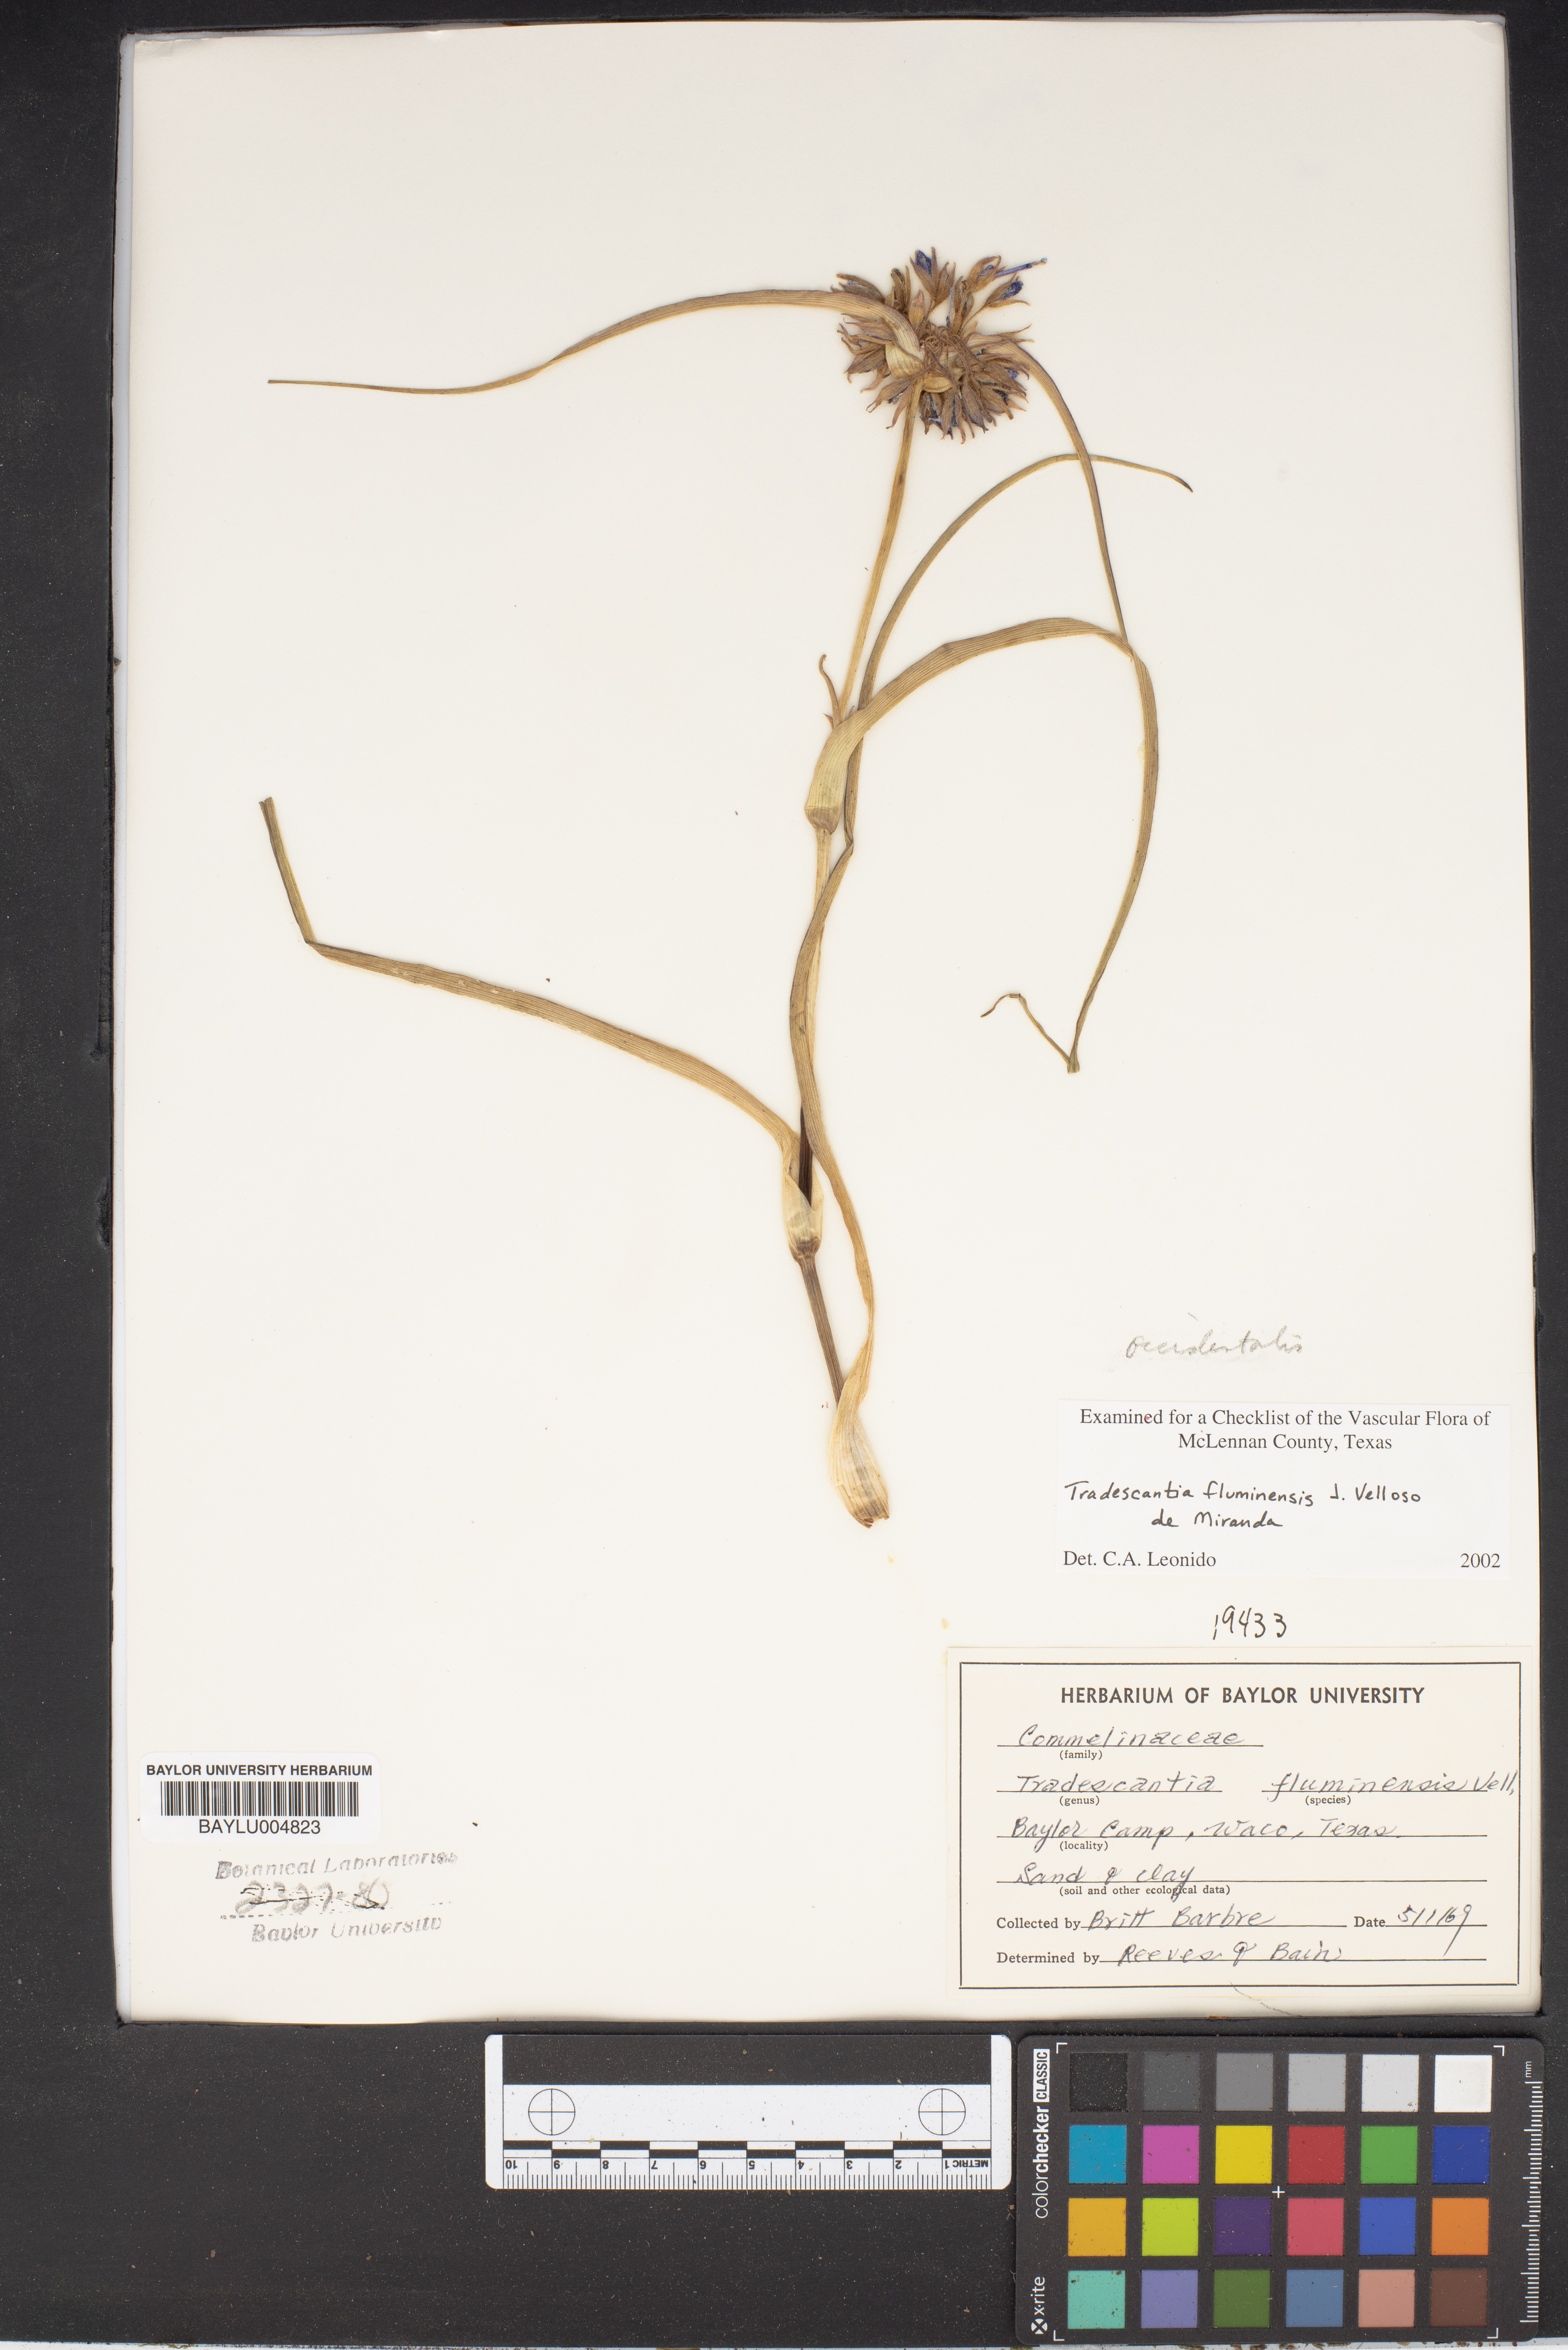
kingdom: Plantae
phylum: Tracheophyta
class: Liliopsida
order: Commelinales
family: Commelinaceae
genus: Tradescantia
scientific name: Tradescantia fluminensis
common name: Wandering-jew
